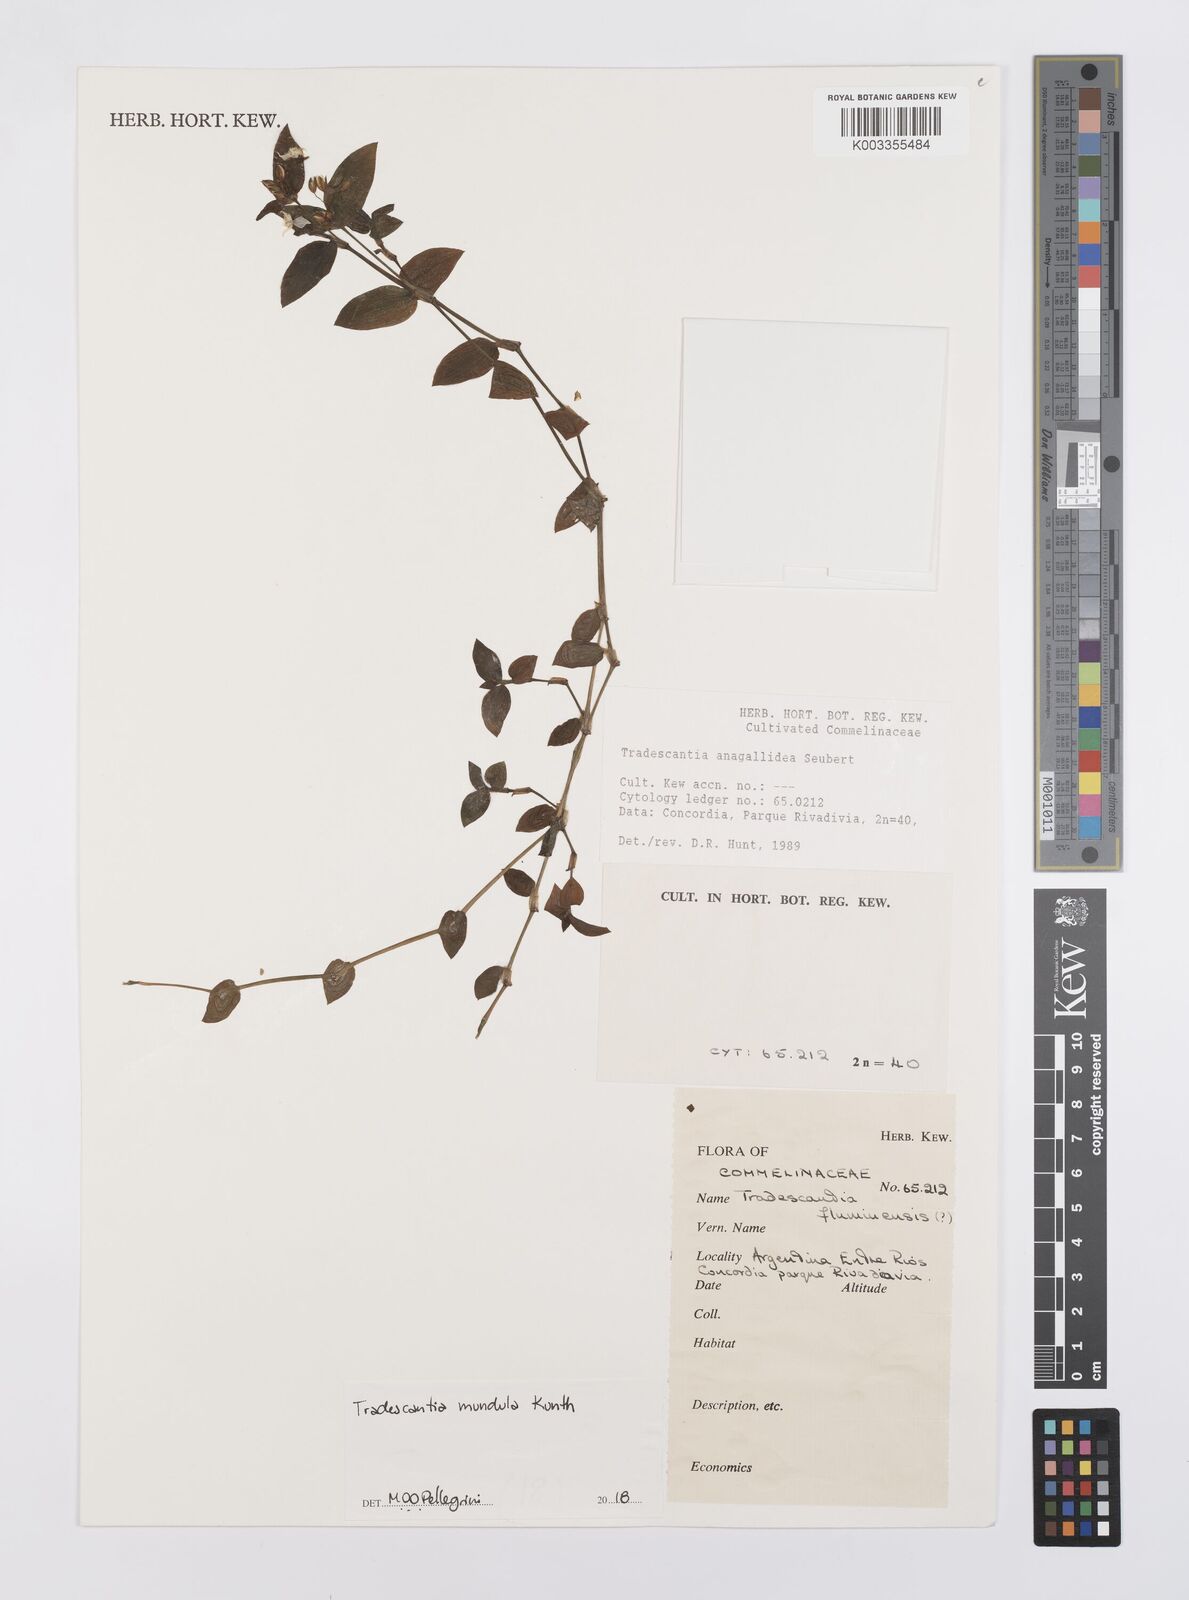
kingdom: Plantae
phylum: Tracheophyta
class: Liliopsida
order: Commelinales
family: Commelinaceae
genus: Tradescantia
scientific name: Tradescantia mundula
